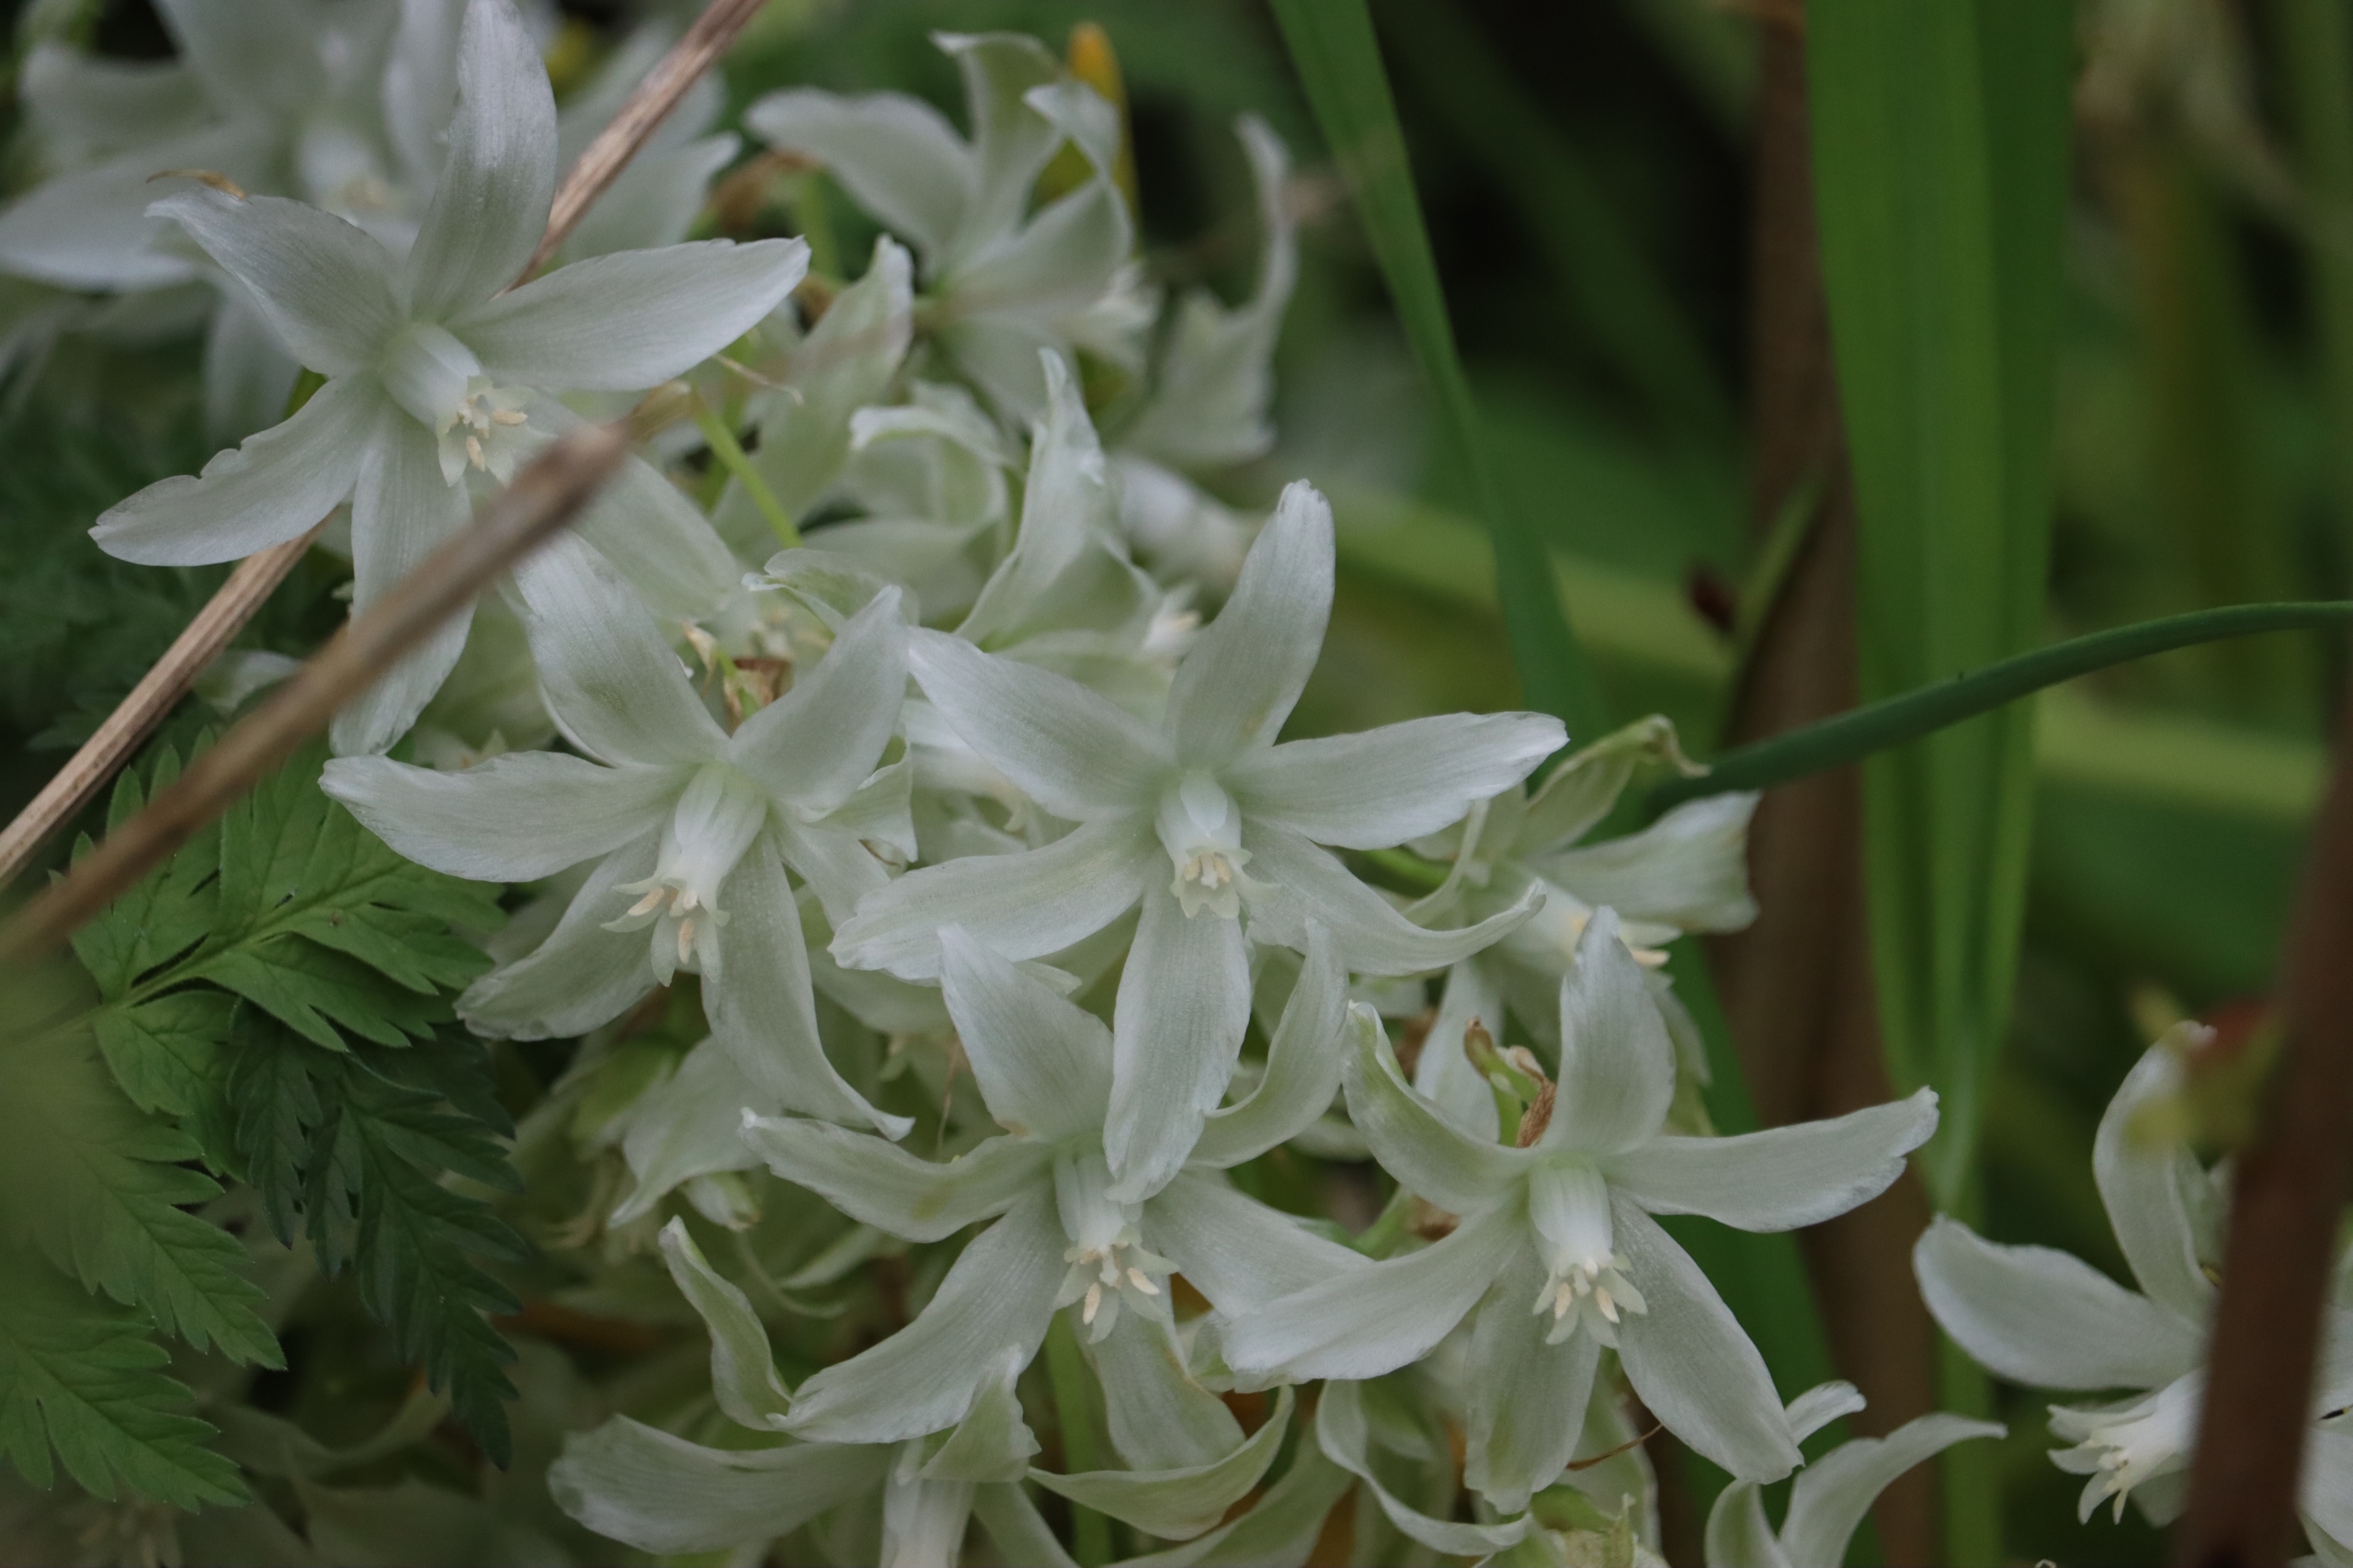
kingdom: Plantae
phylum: Tracheophyta
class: Liliopsida
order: Asparagales
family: Asparagaceae
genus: Ornithogalum
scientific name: Ornithogalum nutans
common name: Nikkende fuglemælk
